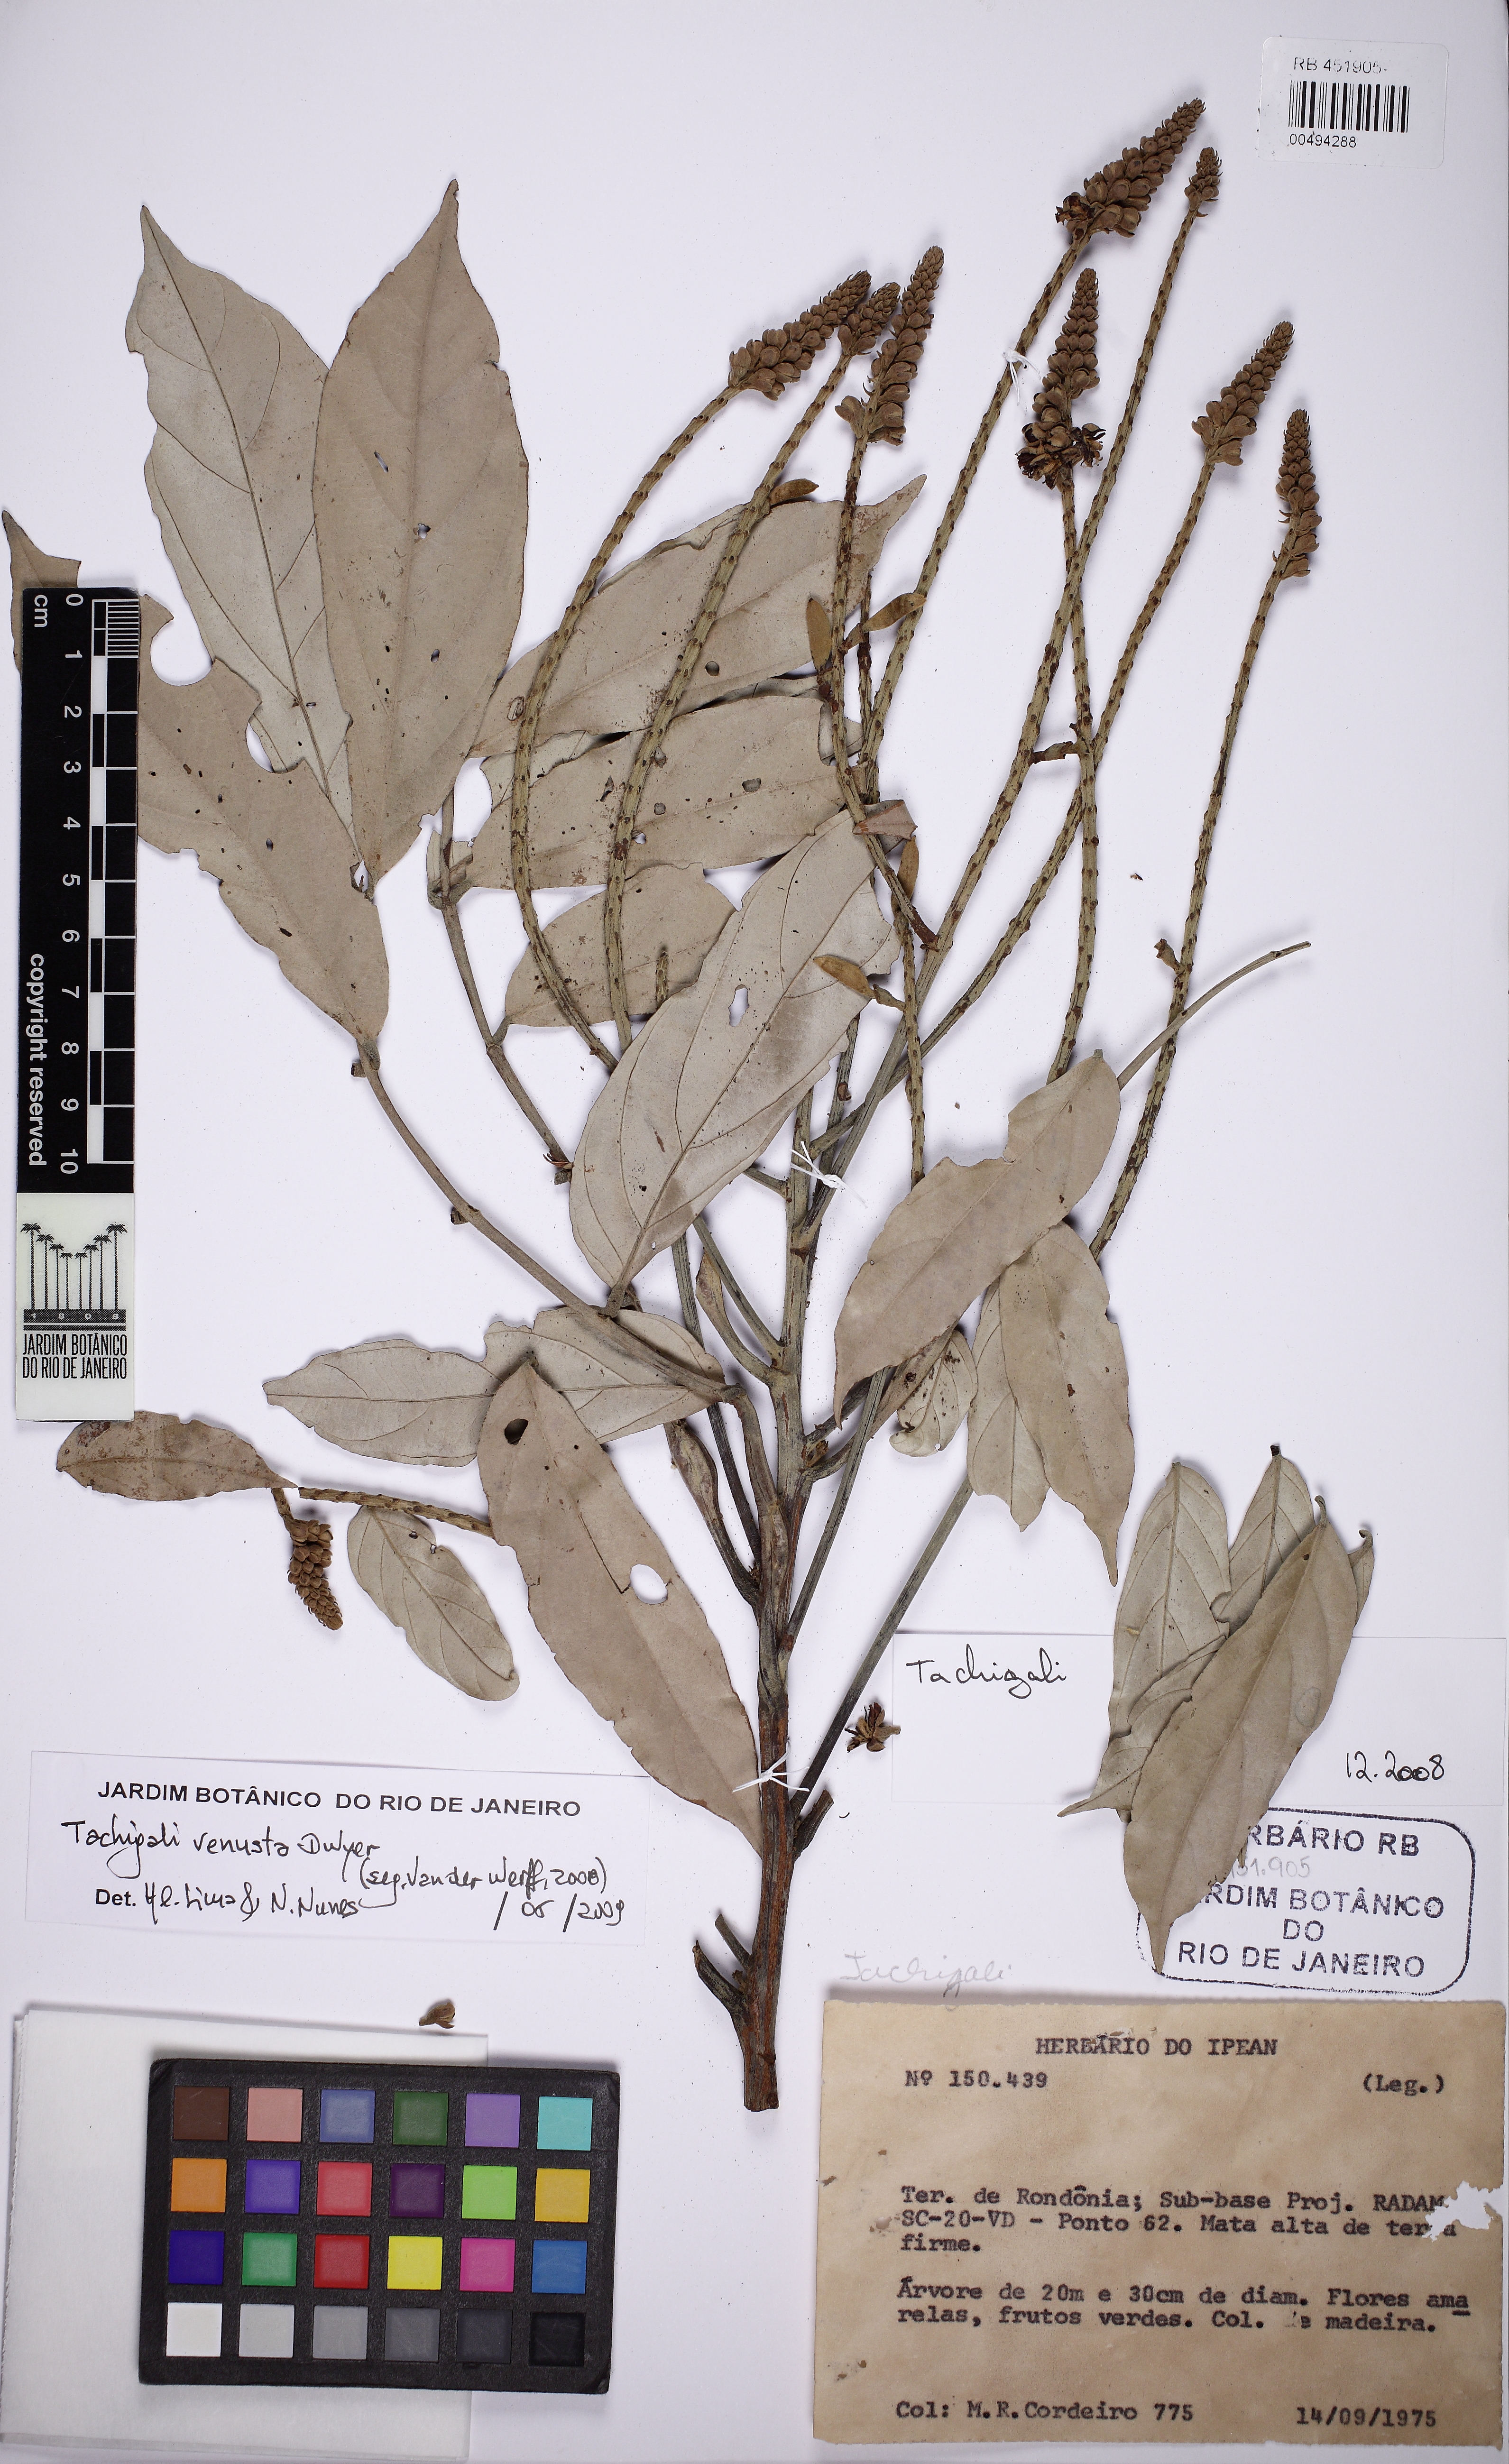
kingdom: Plantae
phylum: Tracheophyta
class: Magnoliopsida
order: Fabales
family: Fabaceae
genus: Tachigali
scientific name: Tachigali venusta
